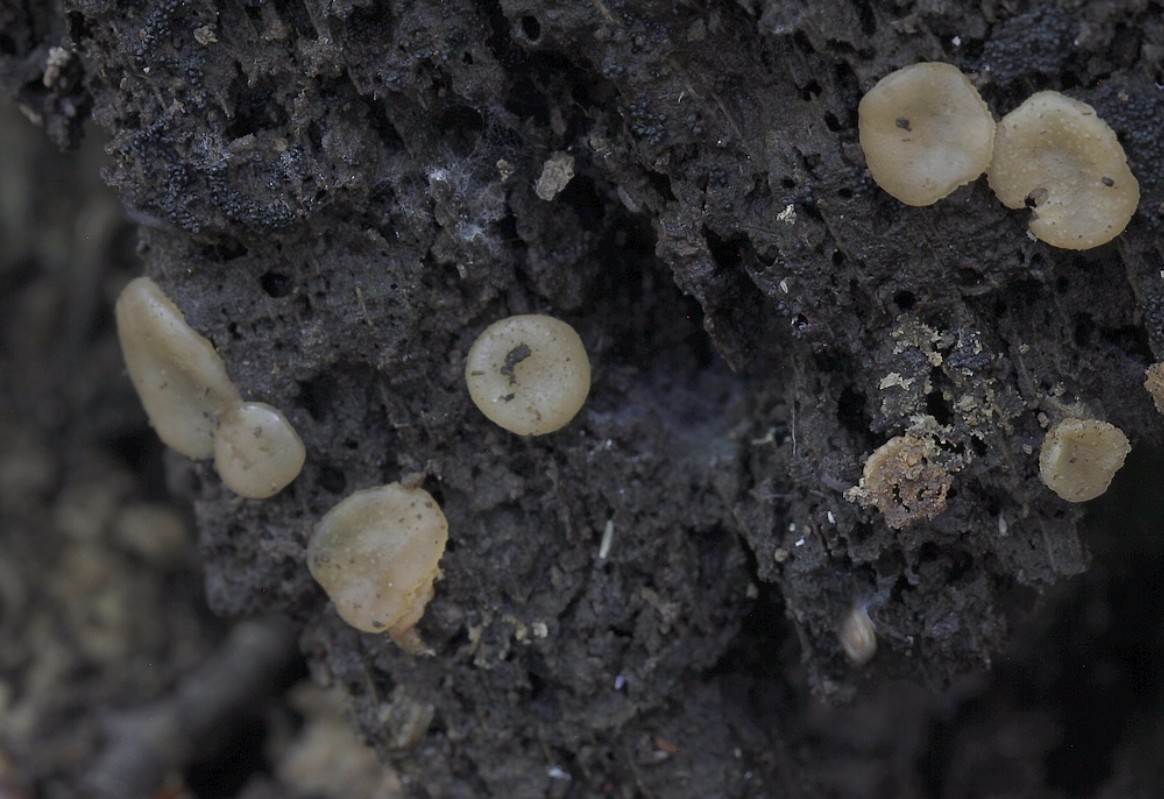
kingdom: Fungi
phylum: Ascomycota
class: Pezizomycetes
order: Pezizales
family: Pezizaceae
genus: Adelphella
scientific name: Adelphella babingtonii
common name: almindelig bækbæger
